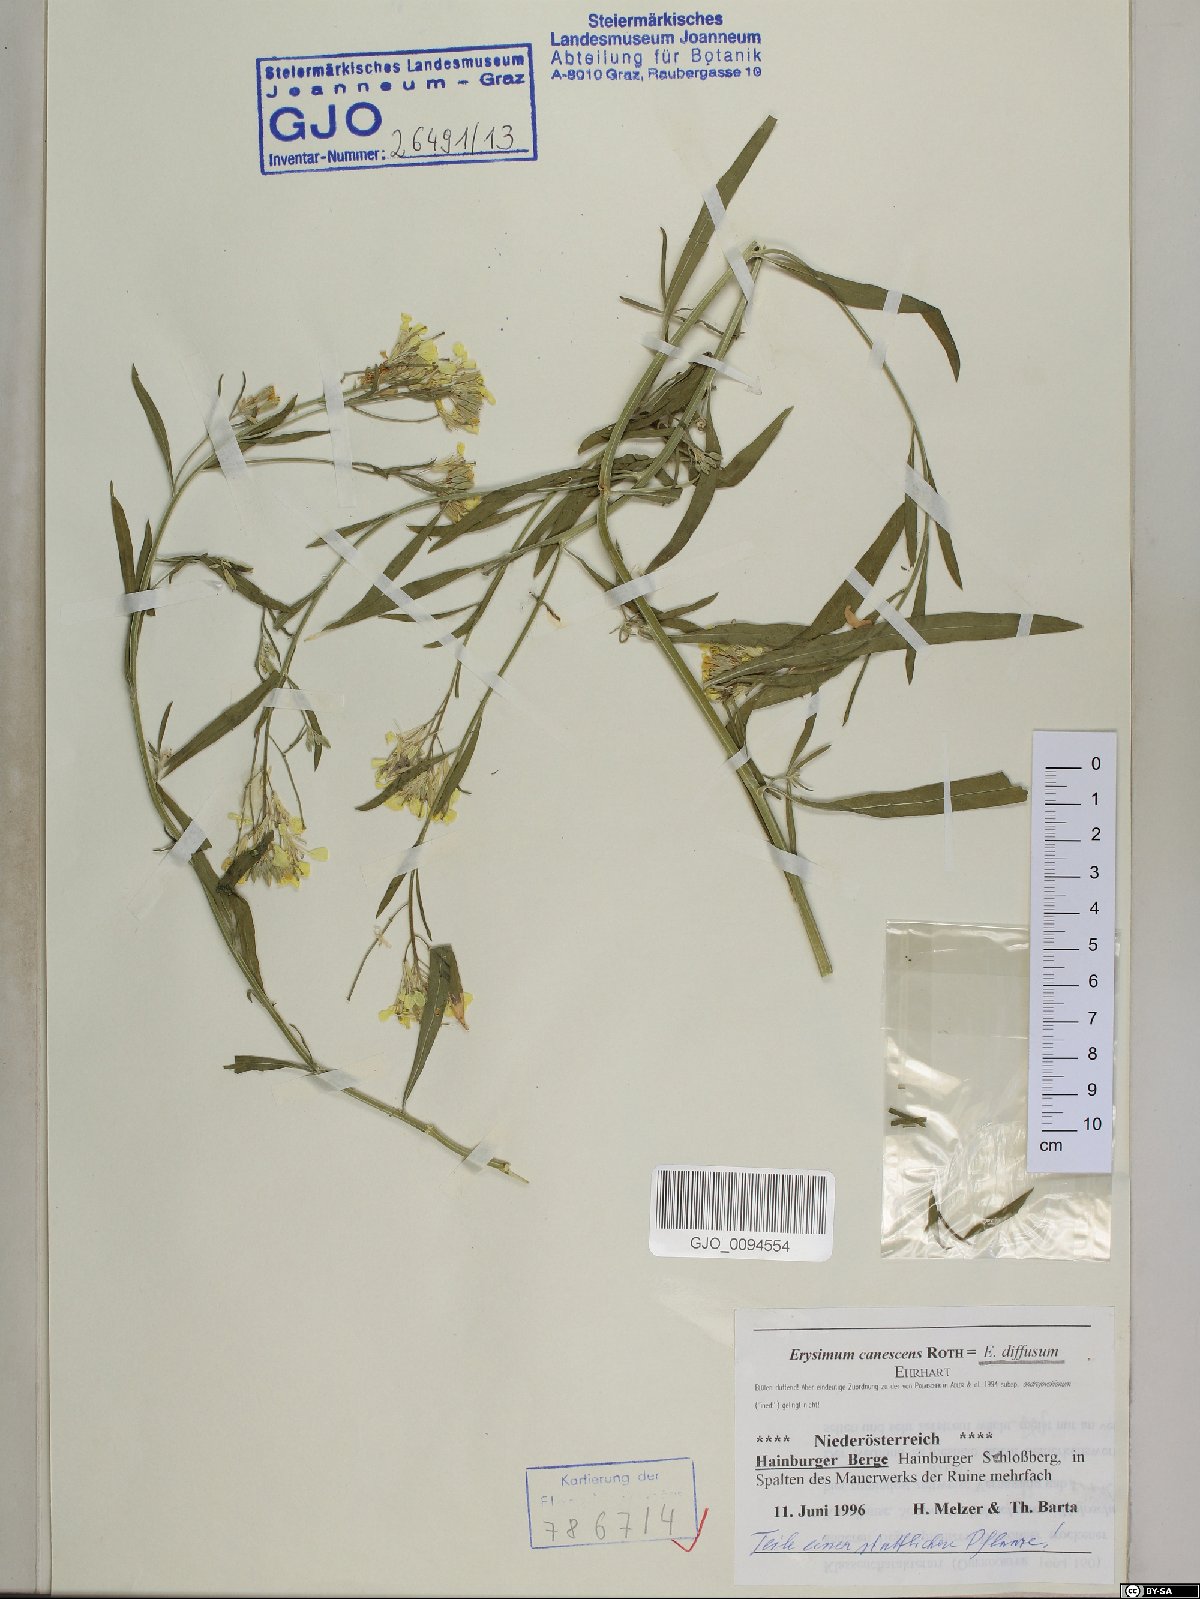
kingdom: Plantae
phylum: Tracheophyta
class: Magnoliopsida
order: Brassicales
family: Brassicaceae
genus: Erysimum
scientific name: Erysimum diffusum
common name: Diffuse wallflower
